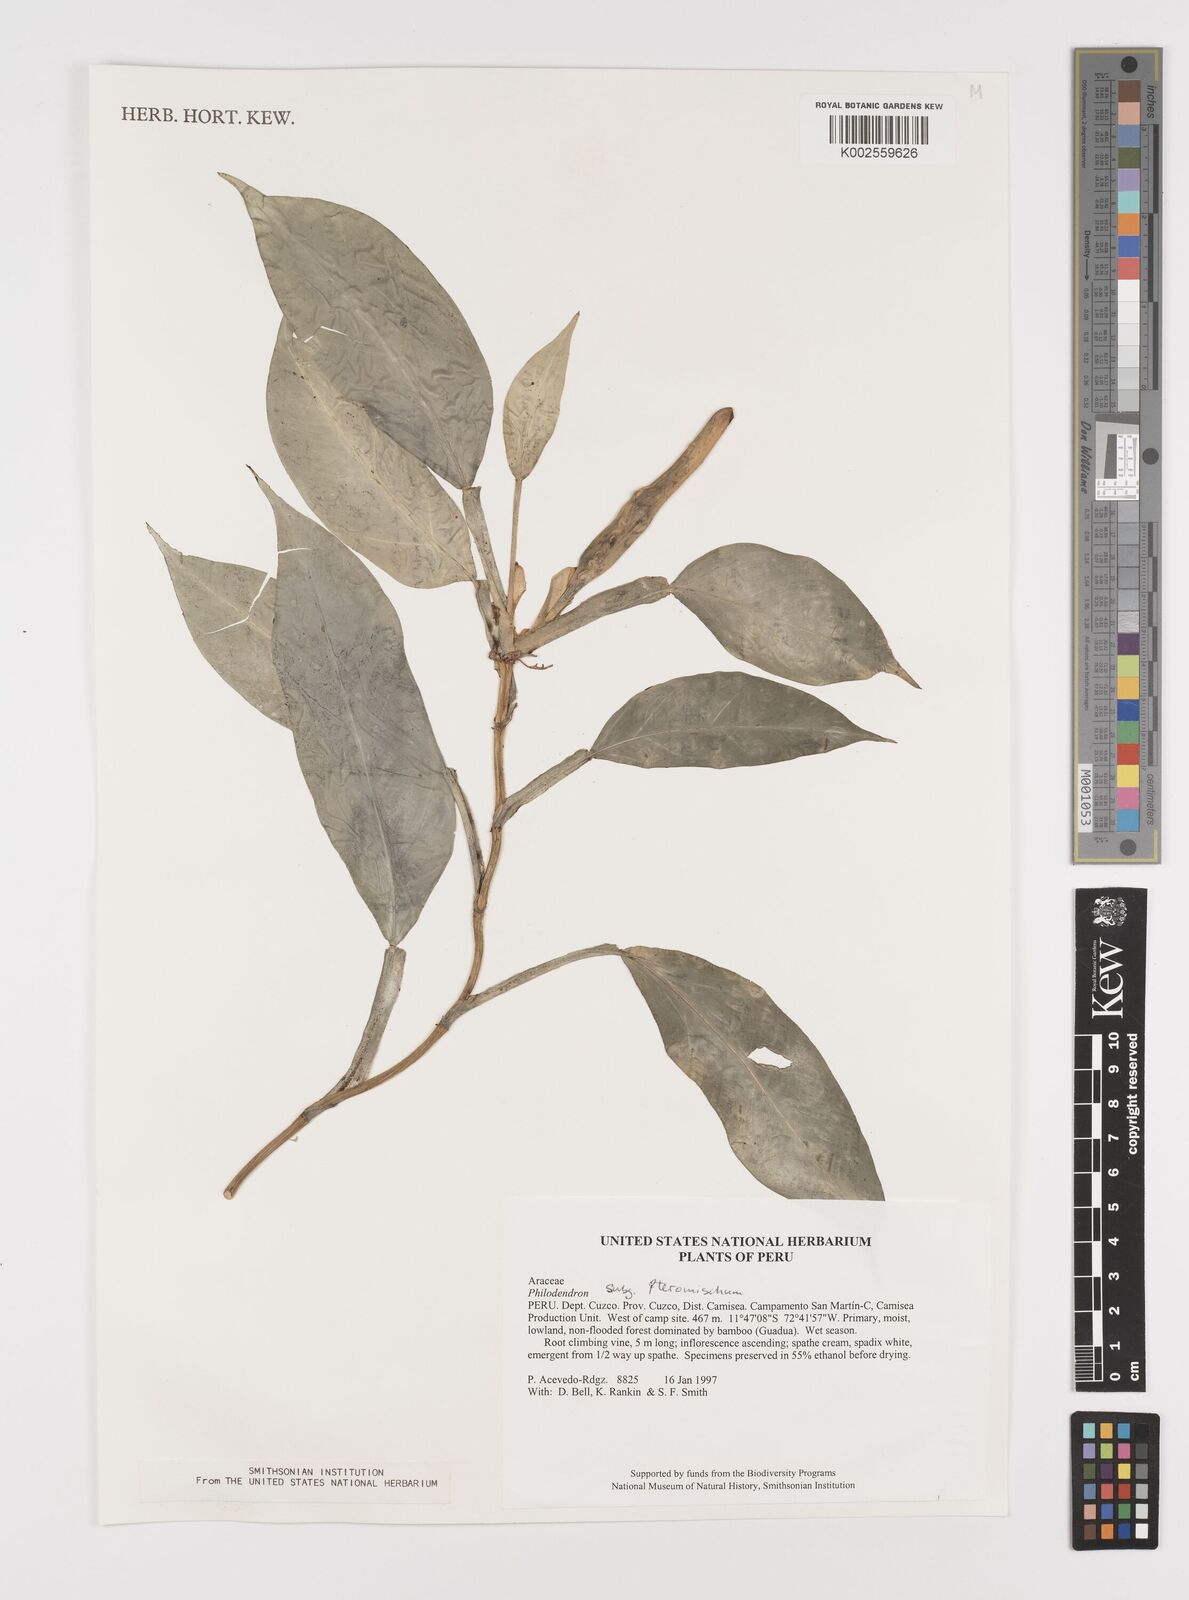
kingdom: Plantae
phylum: Tracheophyta
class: Liliopsida
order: Alismatales
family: Araceae
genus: Philodendron
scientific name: Philodendron venosum
